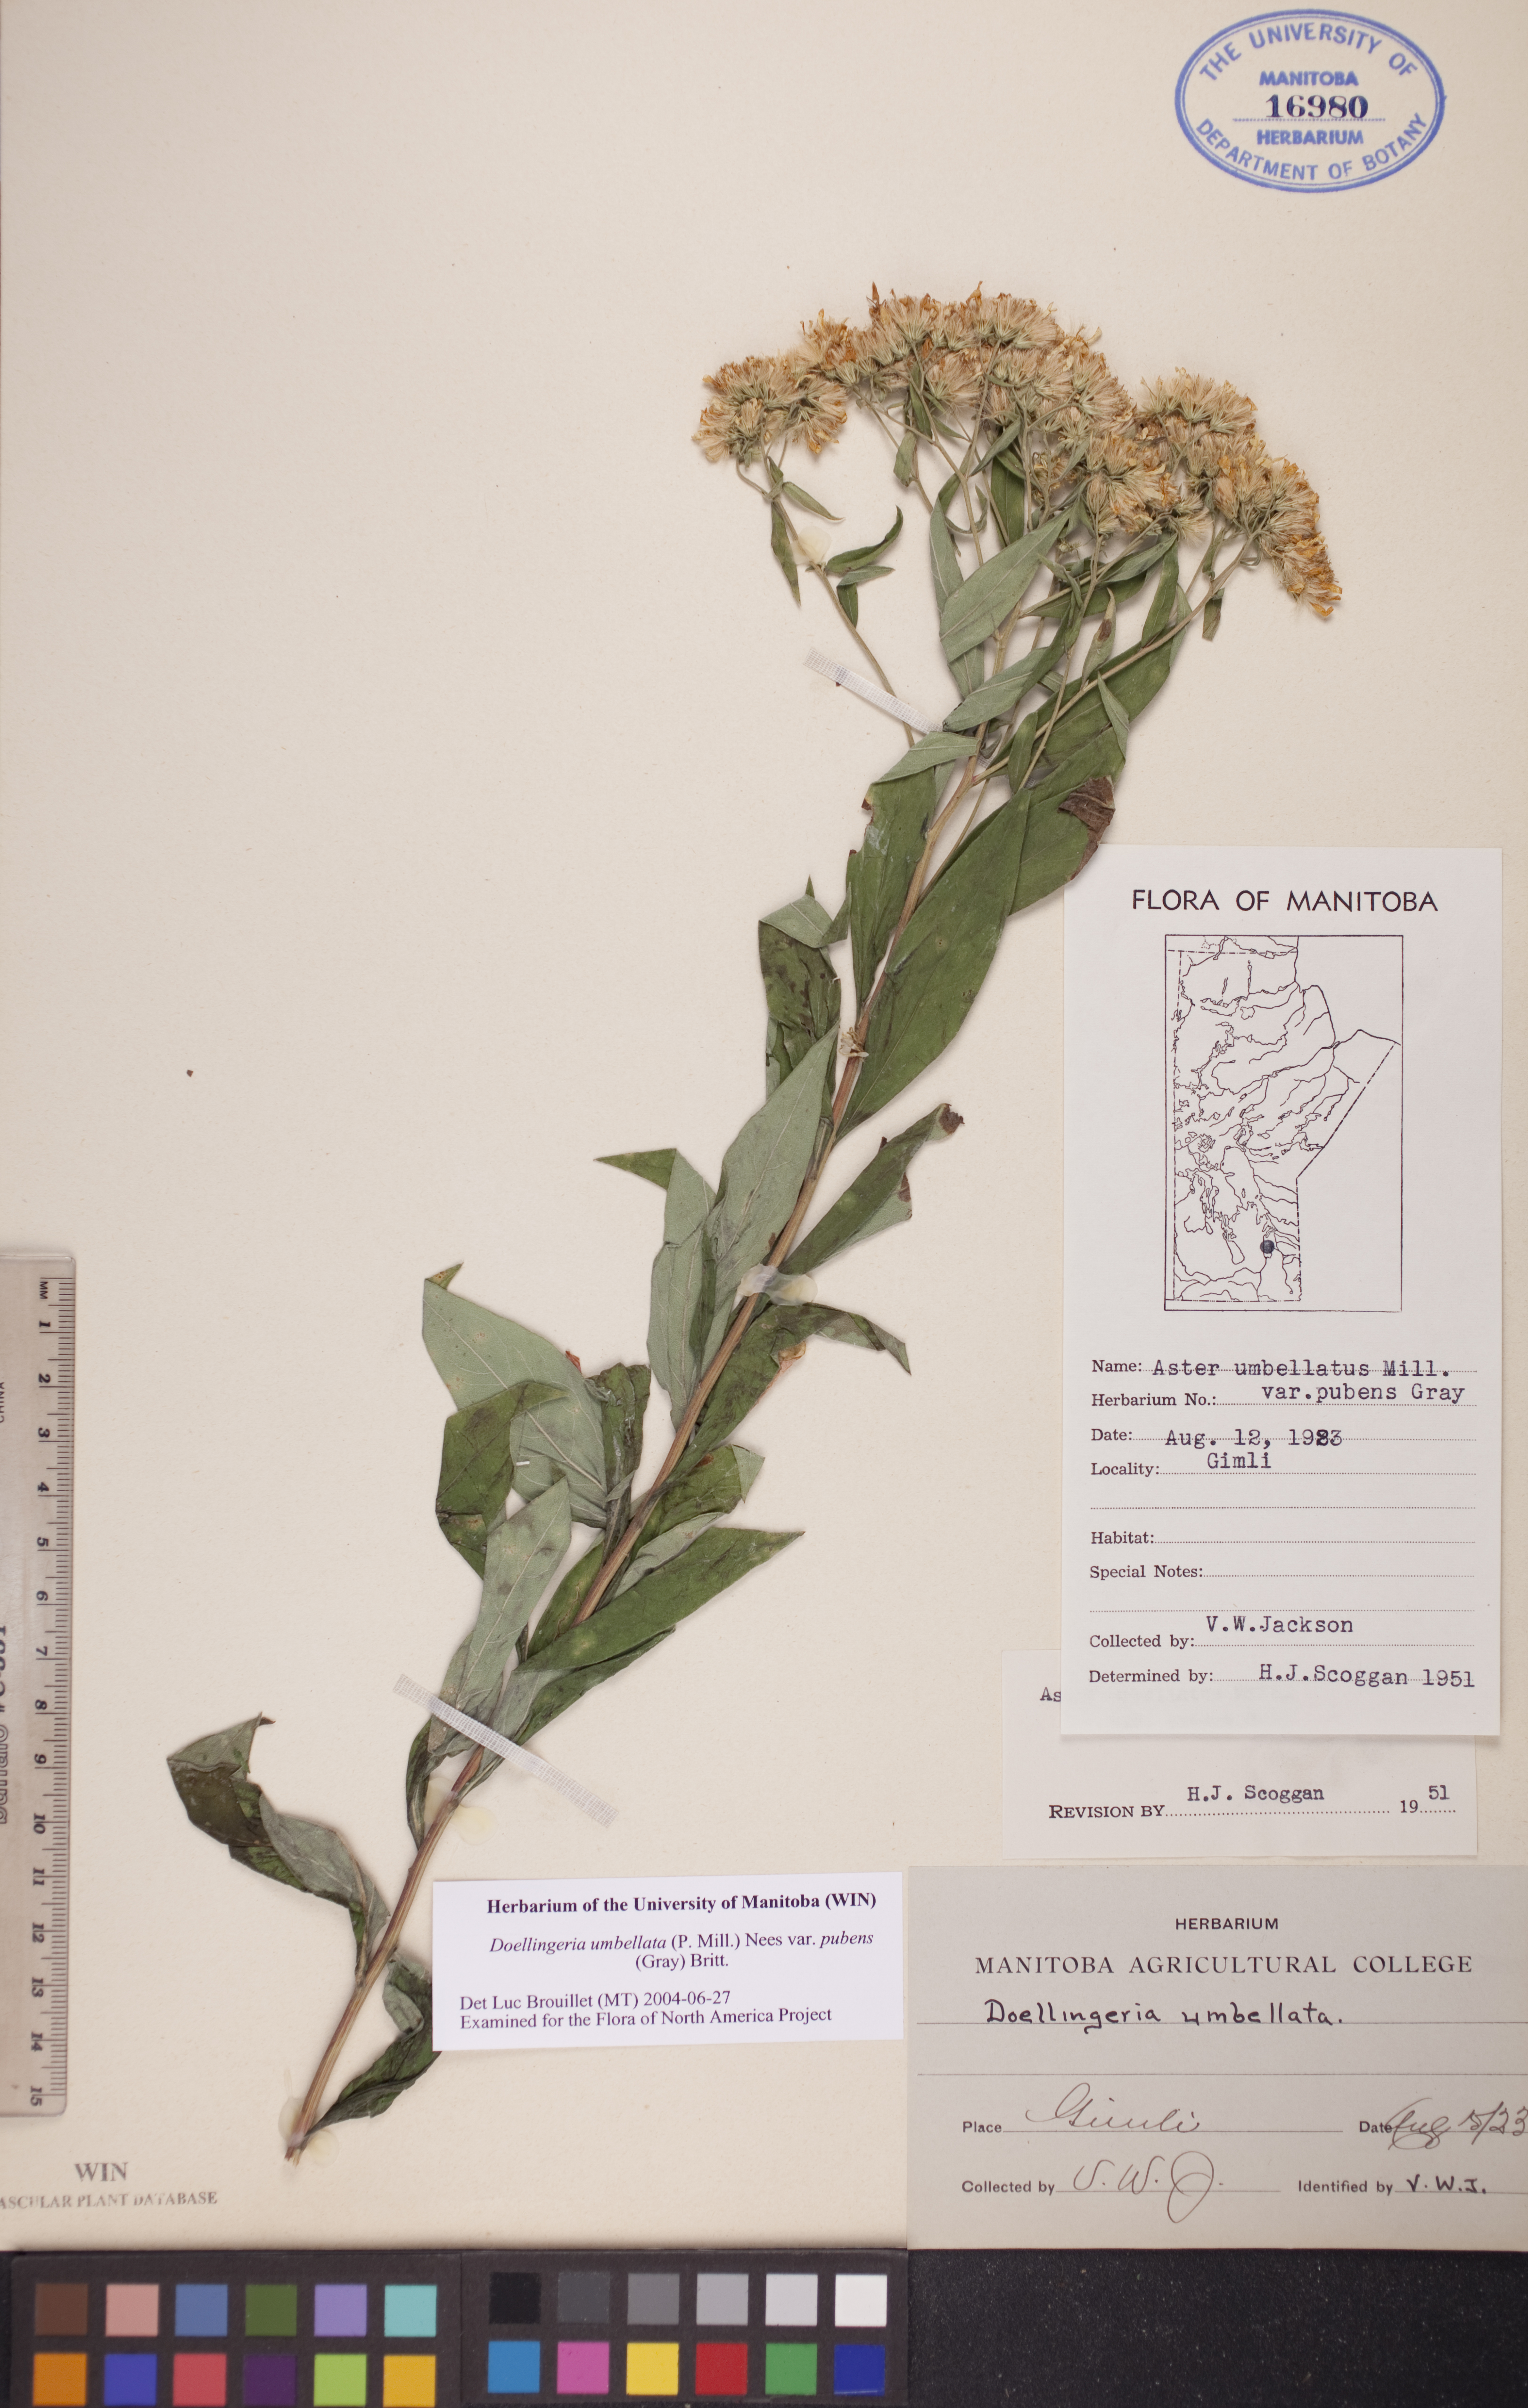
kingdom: Plantae
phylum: Tracheophyta
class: Magnoliopsida
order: Asterales
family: Asteraceae
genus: Doellingeria
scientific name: Doellingeria umbellata
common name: Flat-top white aster
